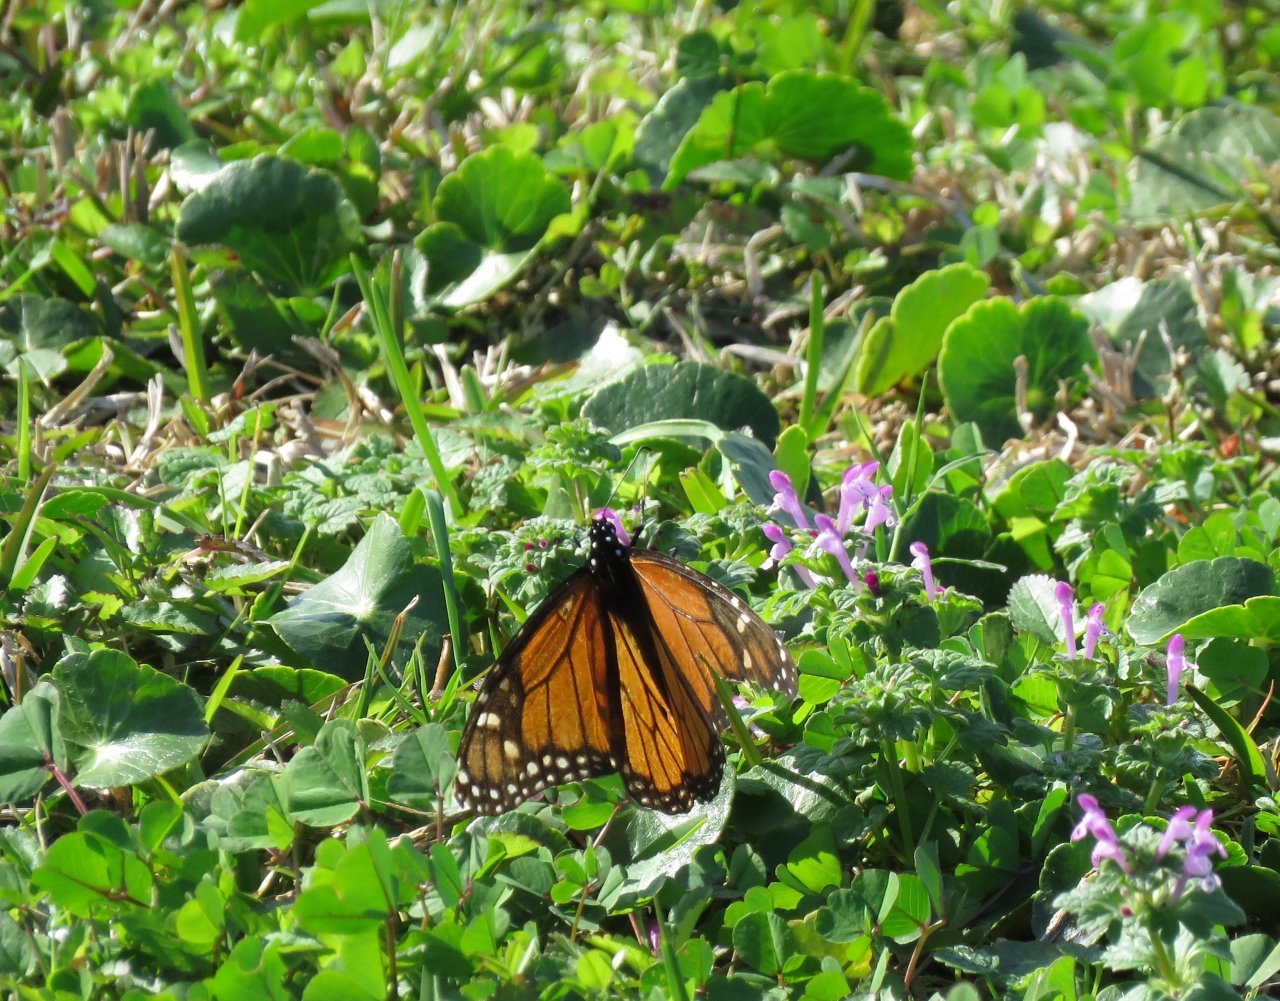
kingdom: Animalia
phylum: Arthropoda
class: Insecta
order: Lepidoptera
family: Nymphalidae
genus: Danaus
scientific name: Danaus plexippus
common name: Monarch
